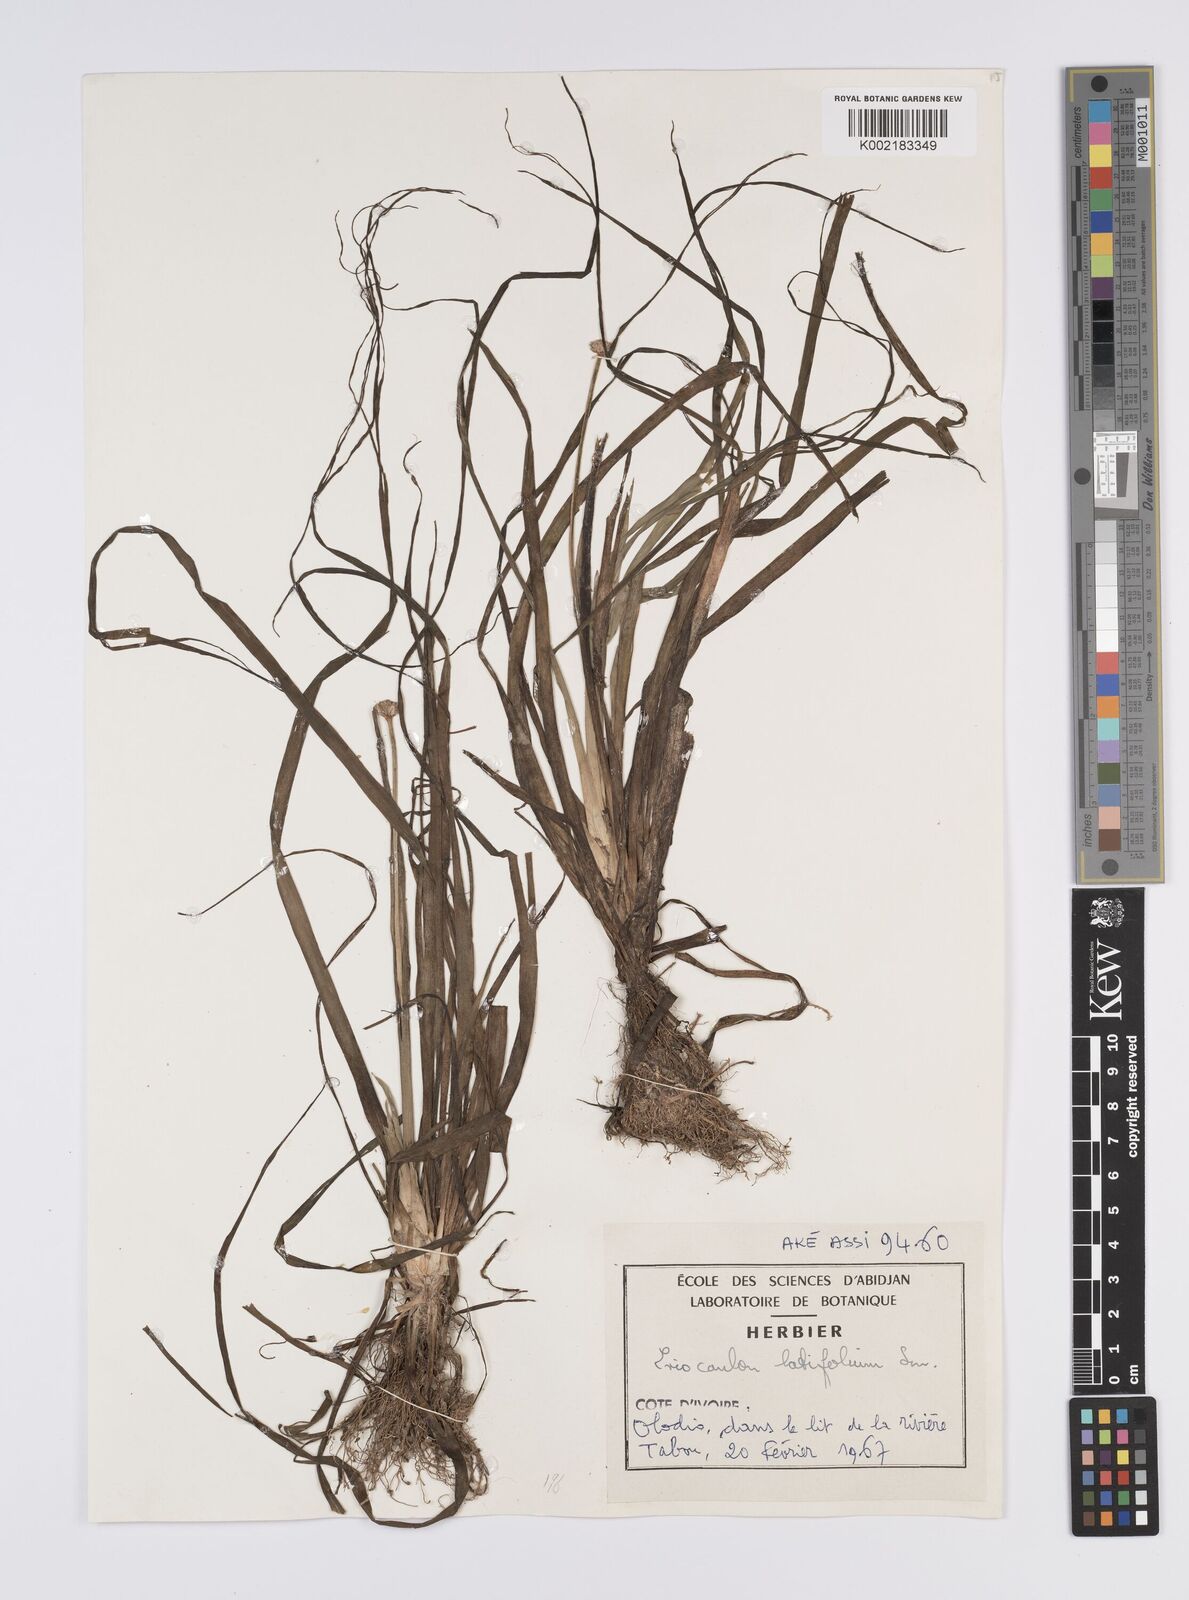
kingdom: Plantae
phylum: Tracheophyta
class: Liliopsida
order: Poales
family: Eriocaulaceae
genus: Eriocaulon
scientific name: Eriocaulon latifolium
